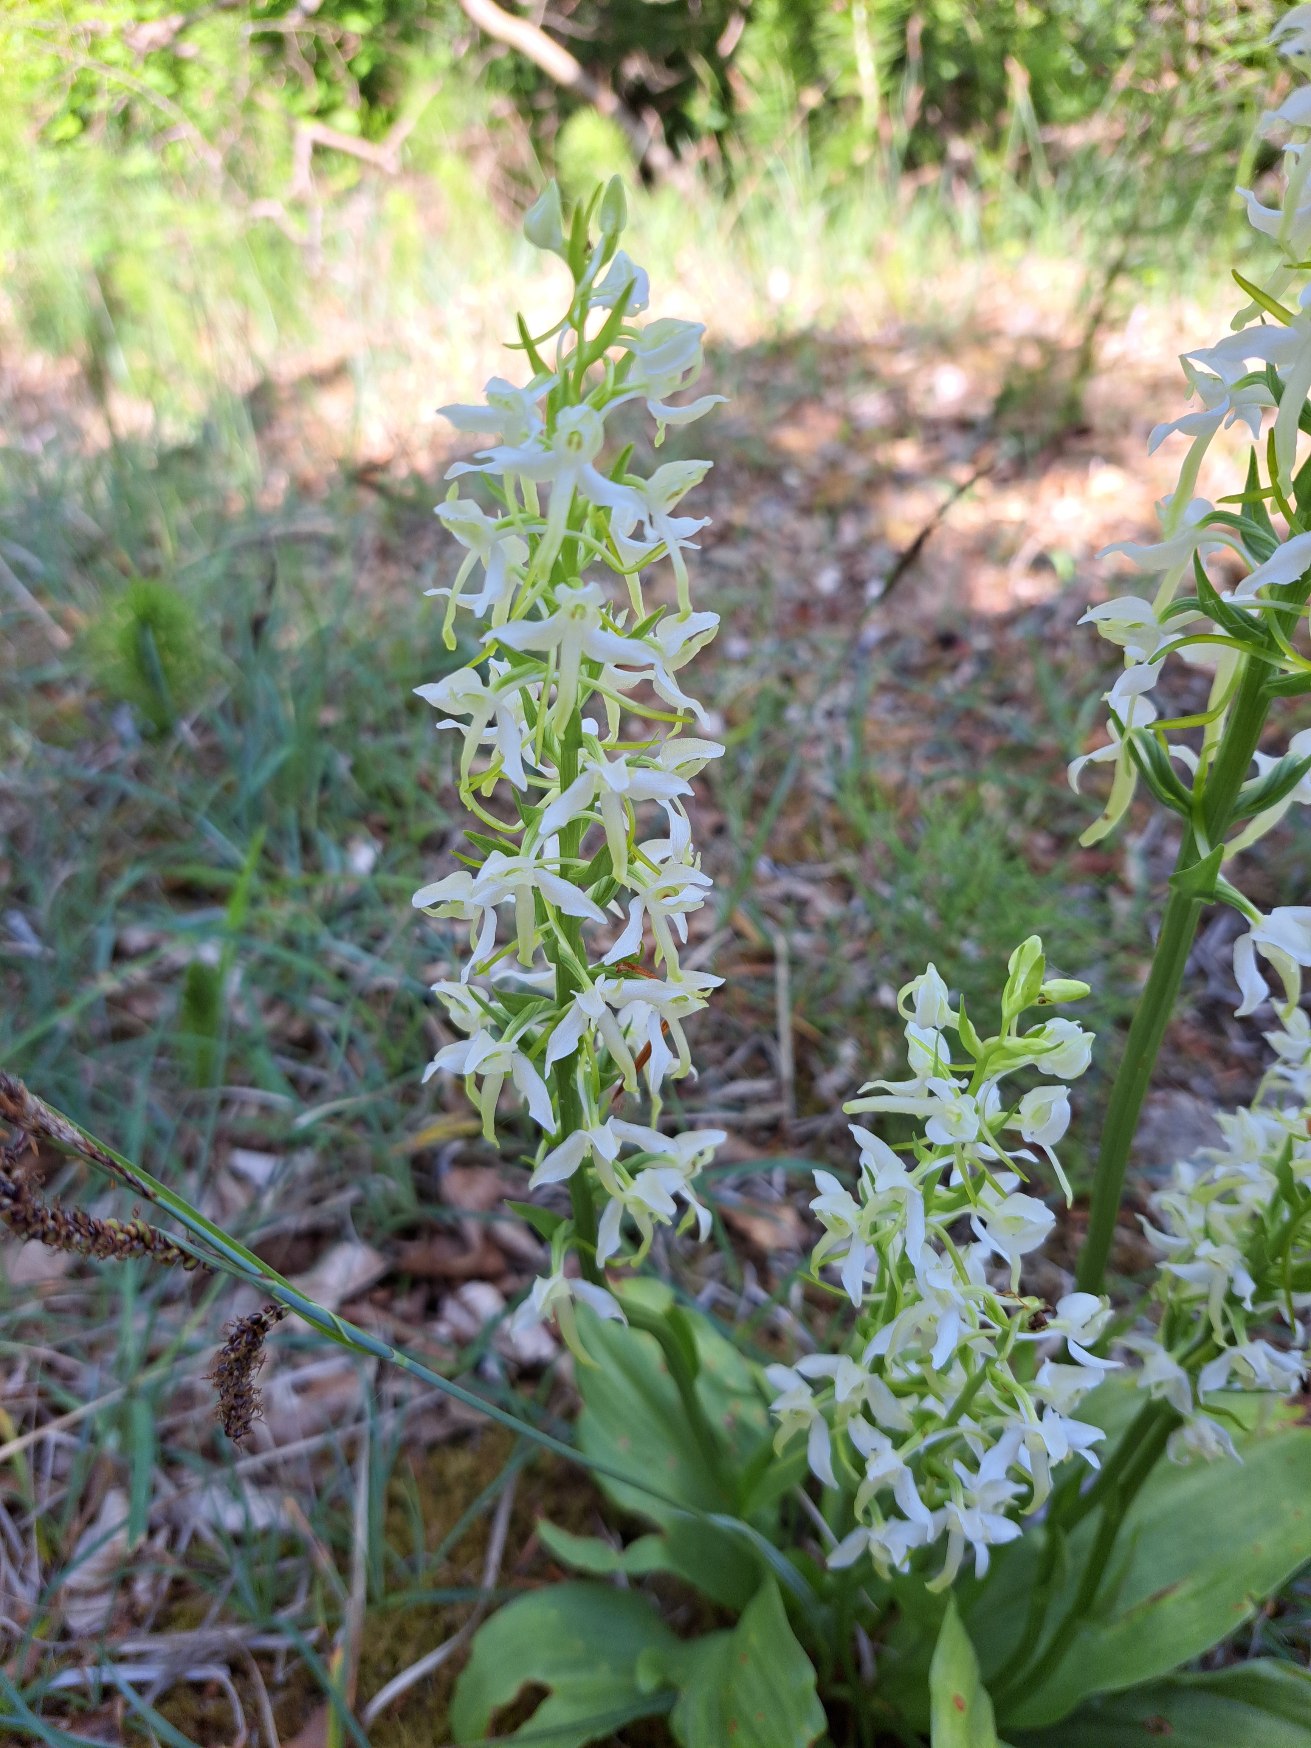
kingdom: Plantae
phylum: Tracheophyta
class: Liliopsida
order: Asparagales
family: Orchidaceae
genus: Platanthera
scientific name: Platanthera bifolia
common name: Bakke-gøgelilje
